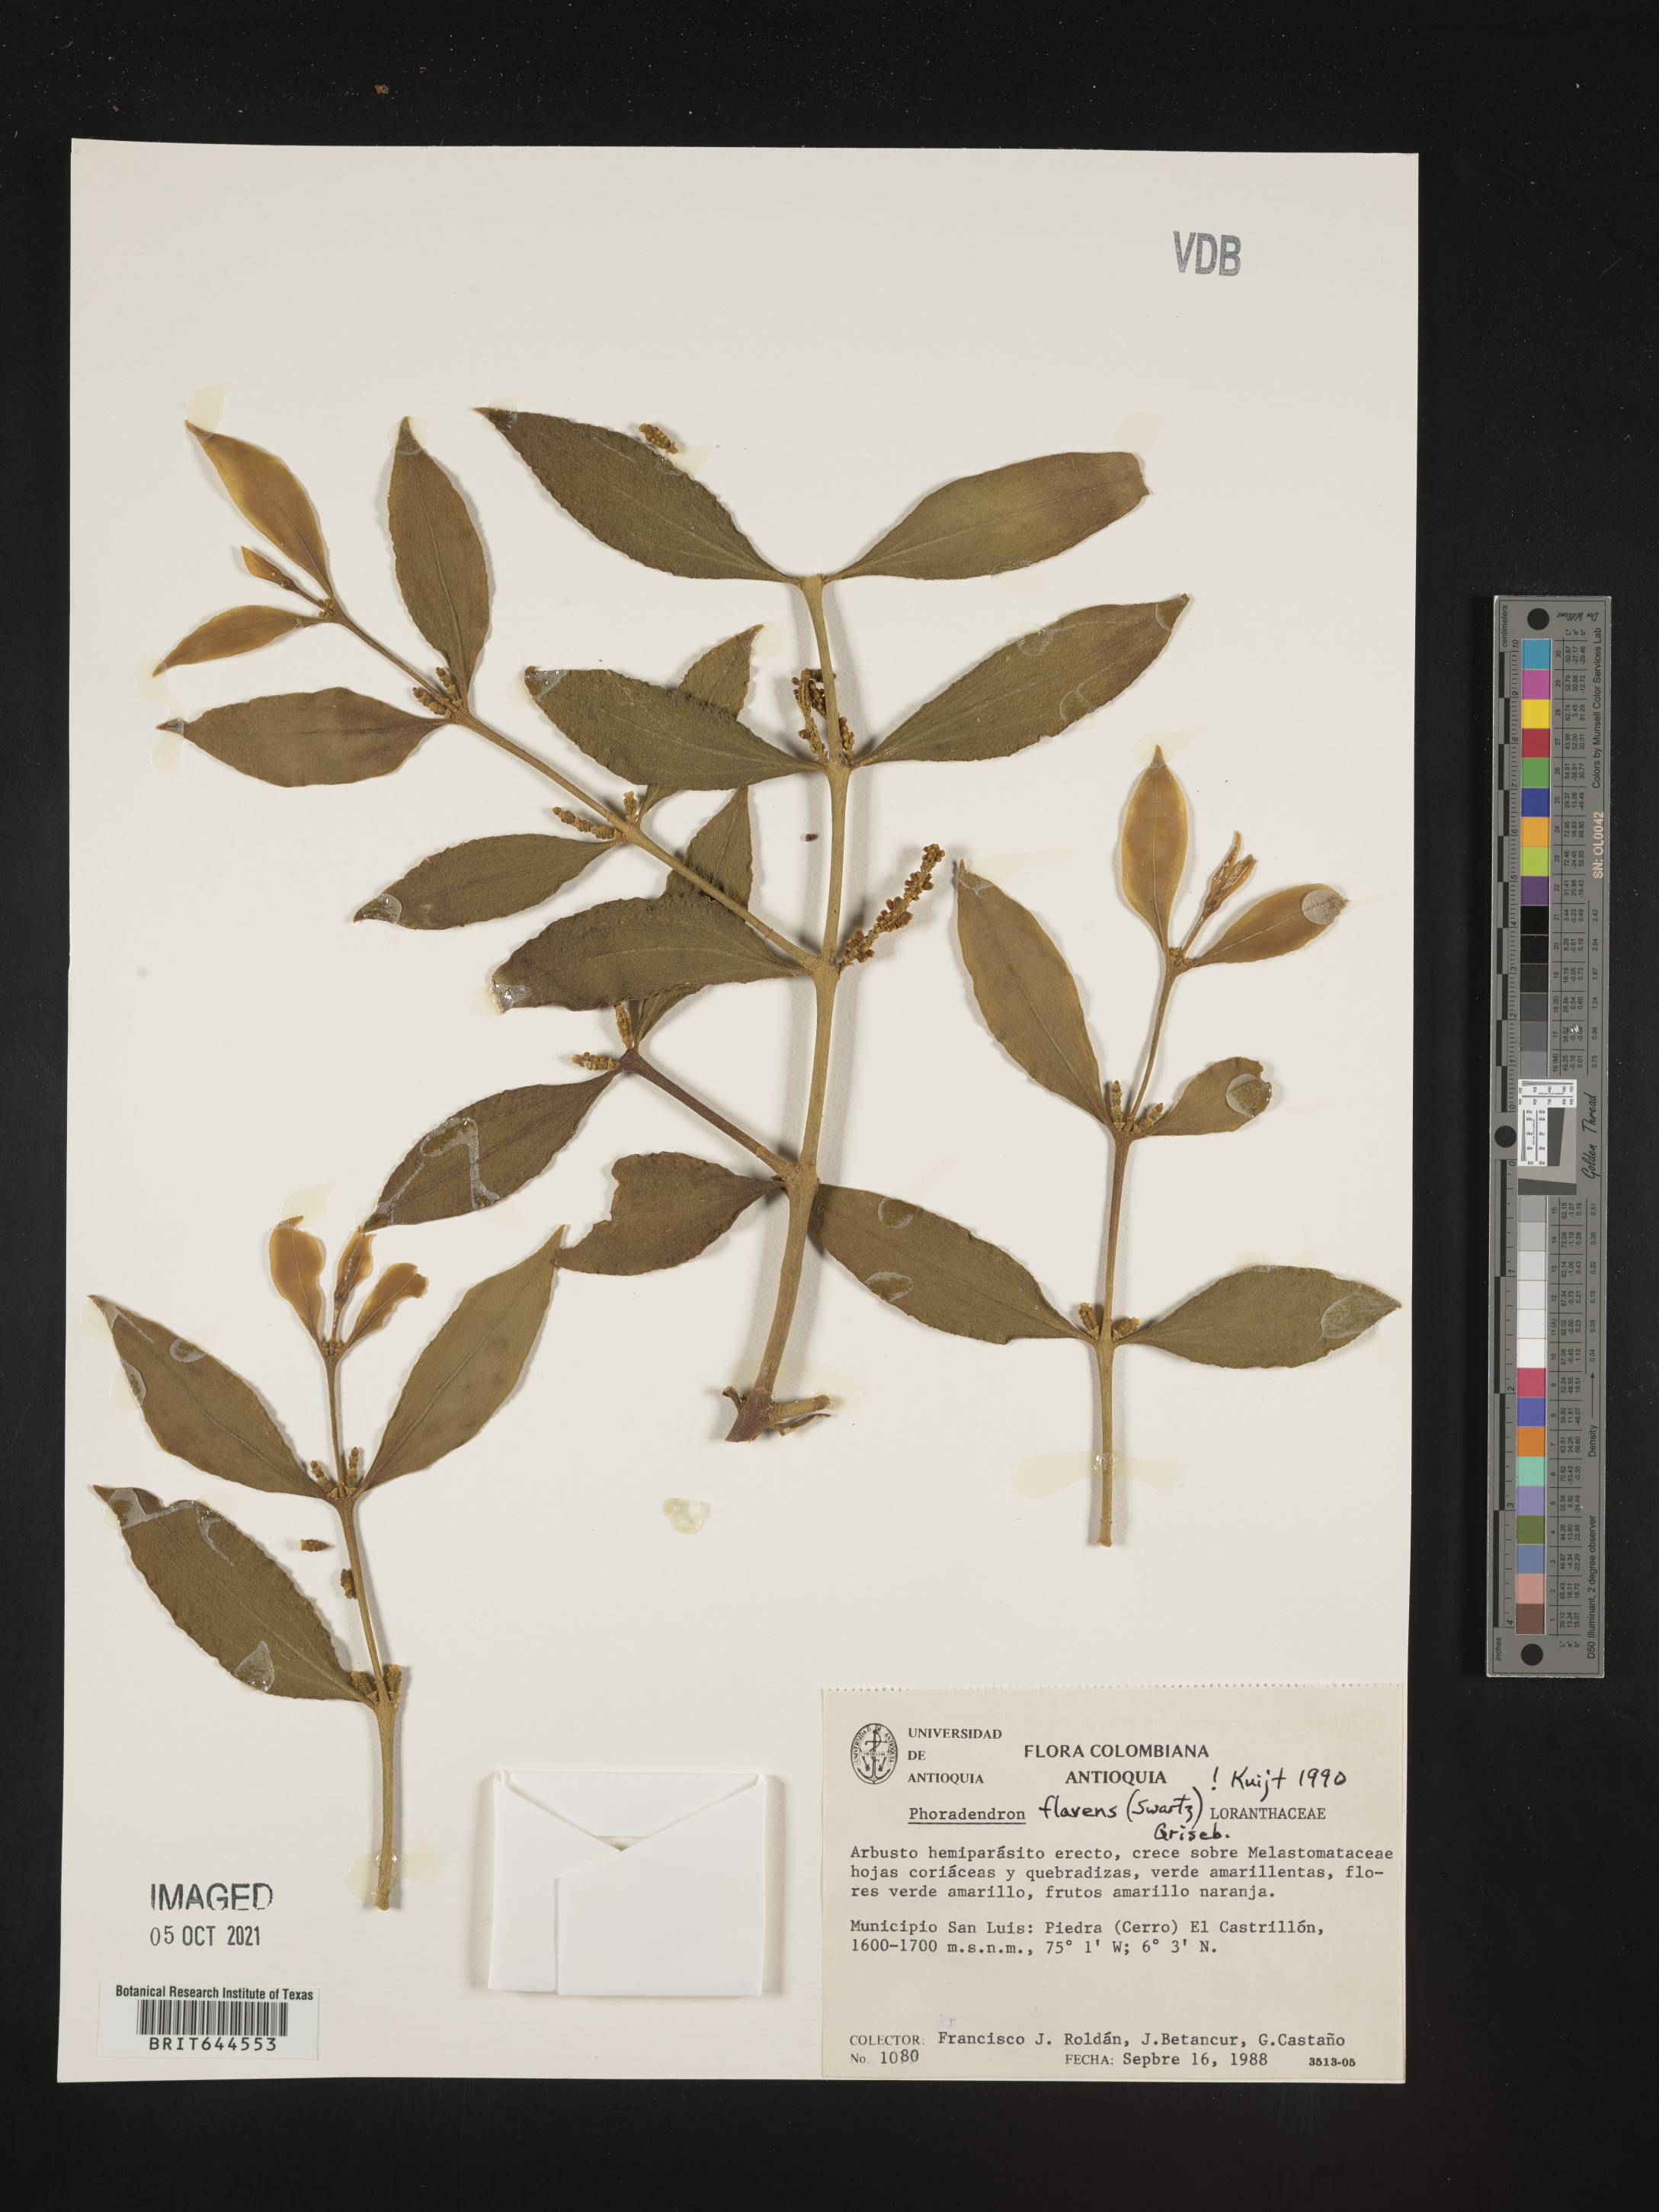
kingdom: Plantae
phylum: Tracheophyta
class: Magnoliopsida
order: Santalales
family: Viscaceae
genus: Phoradendron
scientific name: Phoradendron
